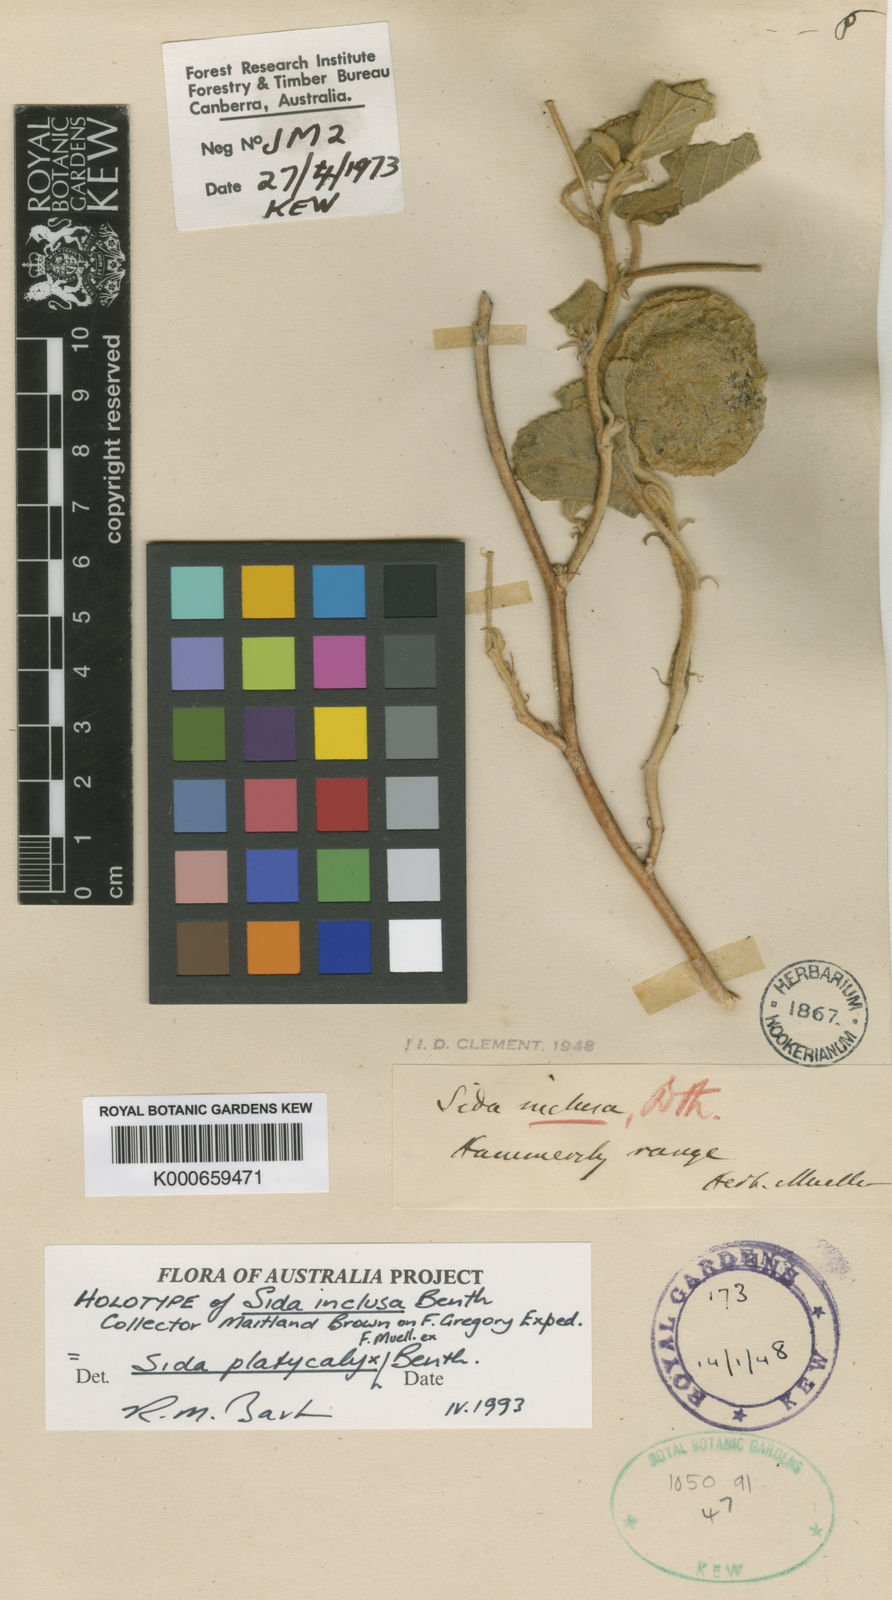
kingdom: Plantae
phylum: Tracheophyta
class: Magnoliopsida
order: Malvales
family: Malvaceae
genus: Sida
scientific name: Sida platycalyx
